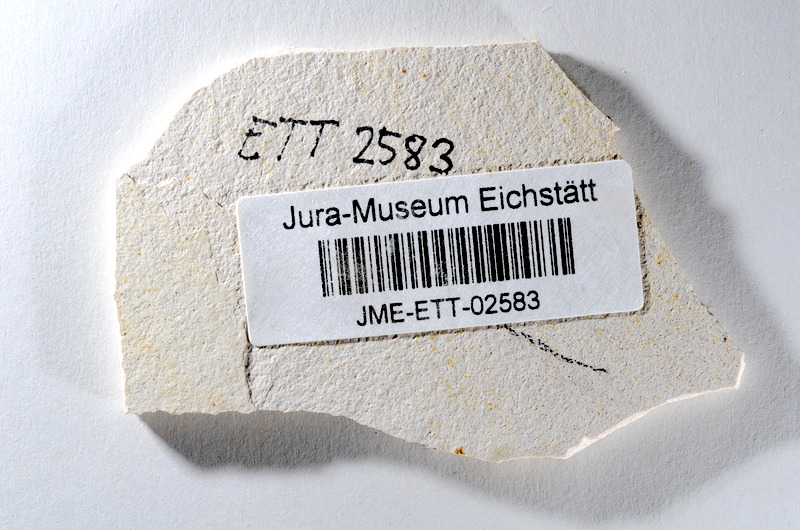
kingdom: Animalia
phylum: Chordata
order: Salmoniformes
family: Orthogonikleithridae
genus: Orthogonikleithrus
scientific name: Orthogonikleithrus hoelli
